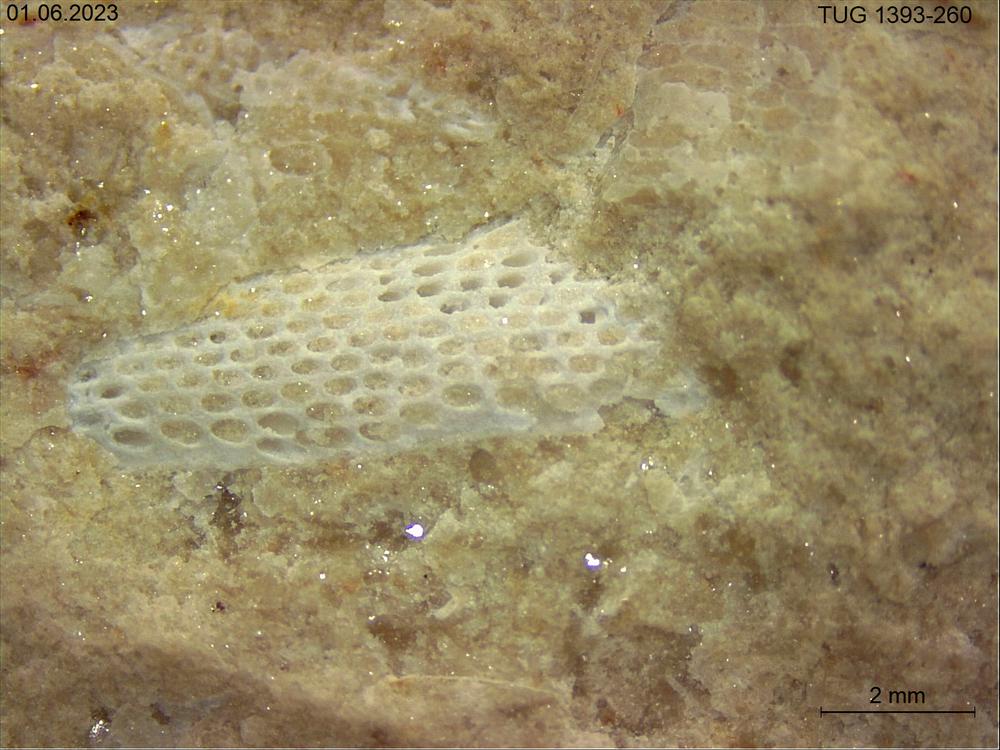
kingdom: Animalia
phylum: Bryozoa
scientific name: Bryozoa
